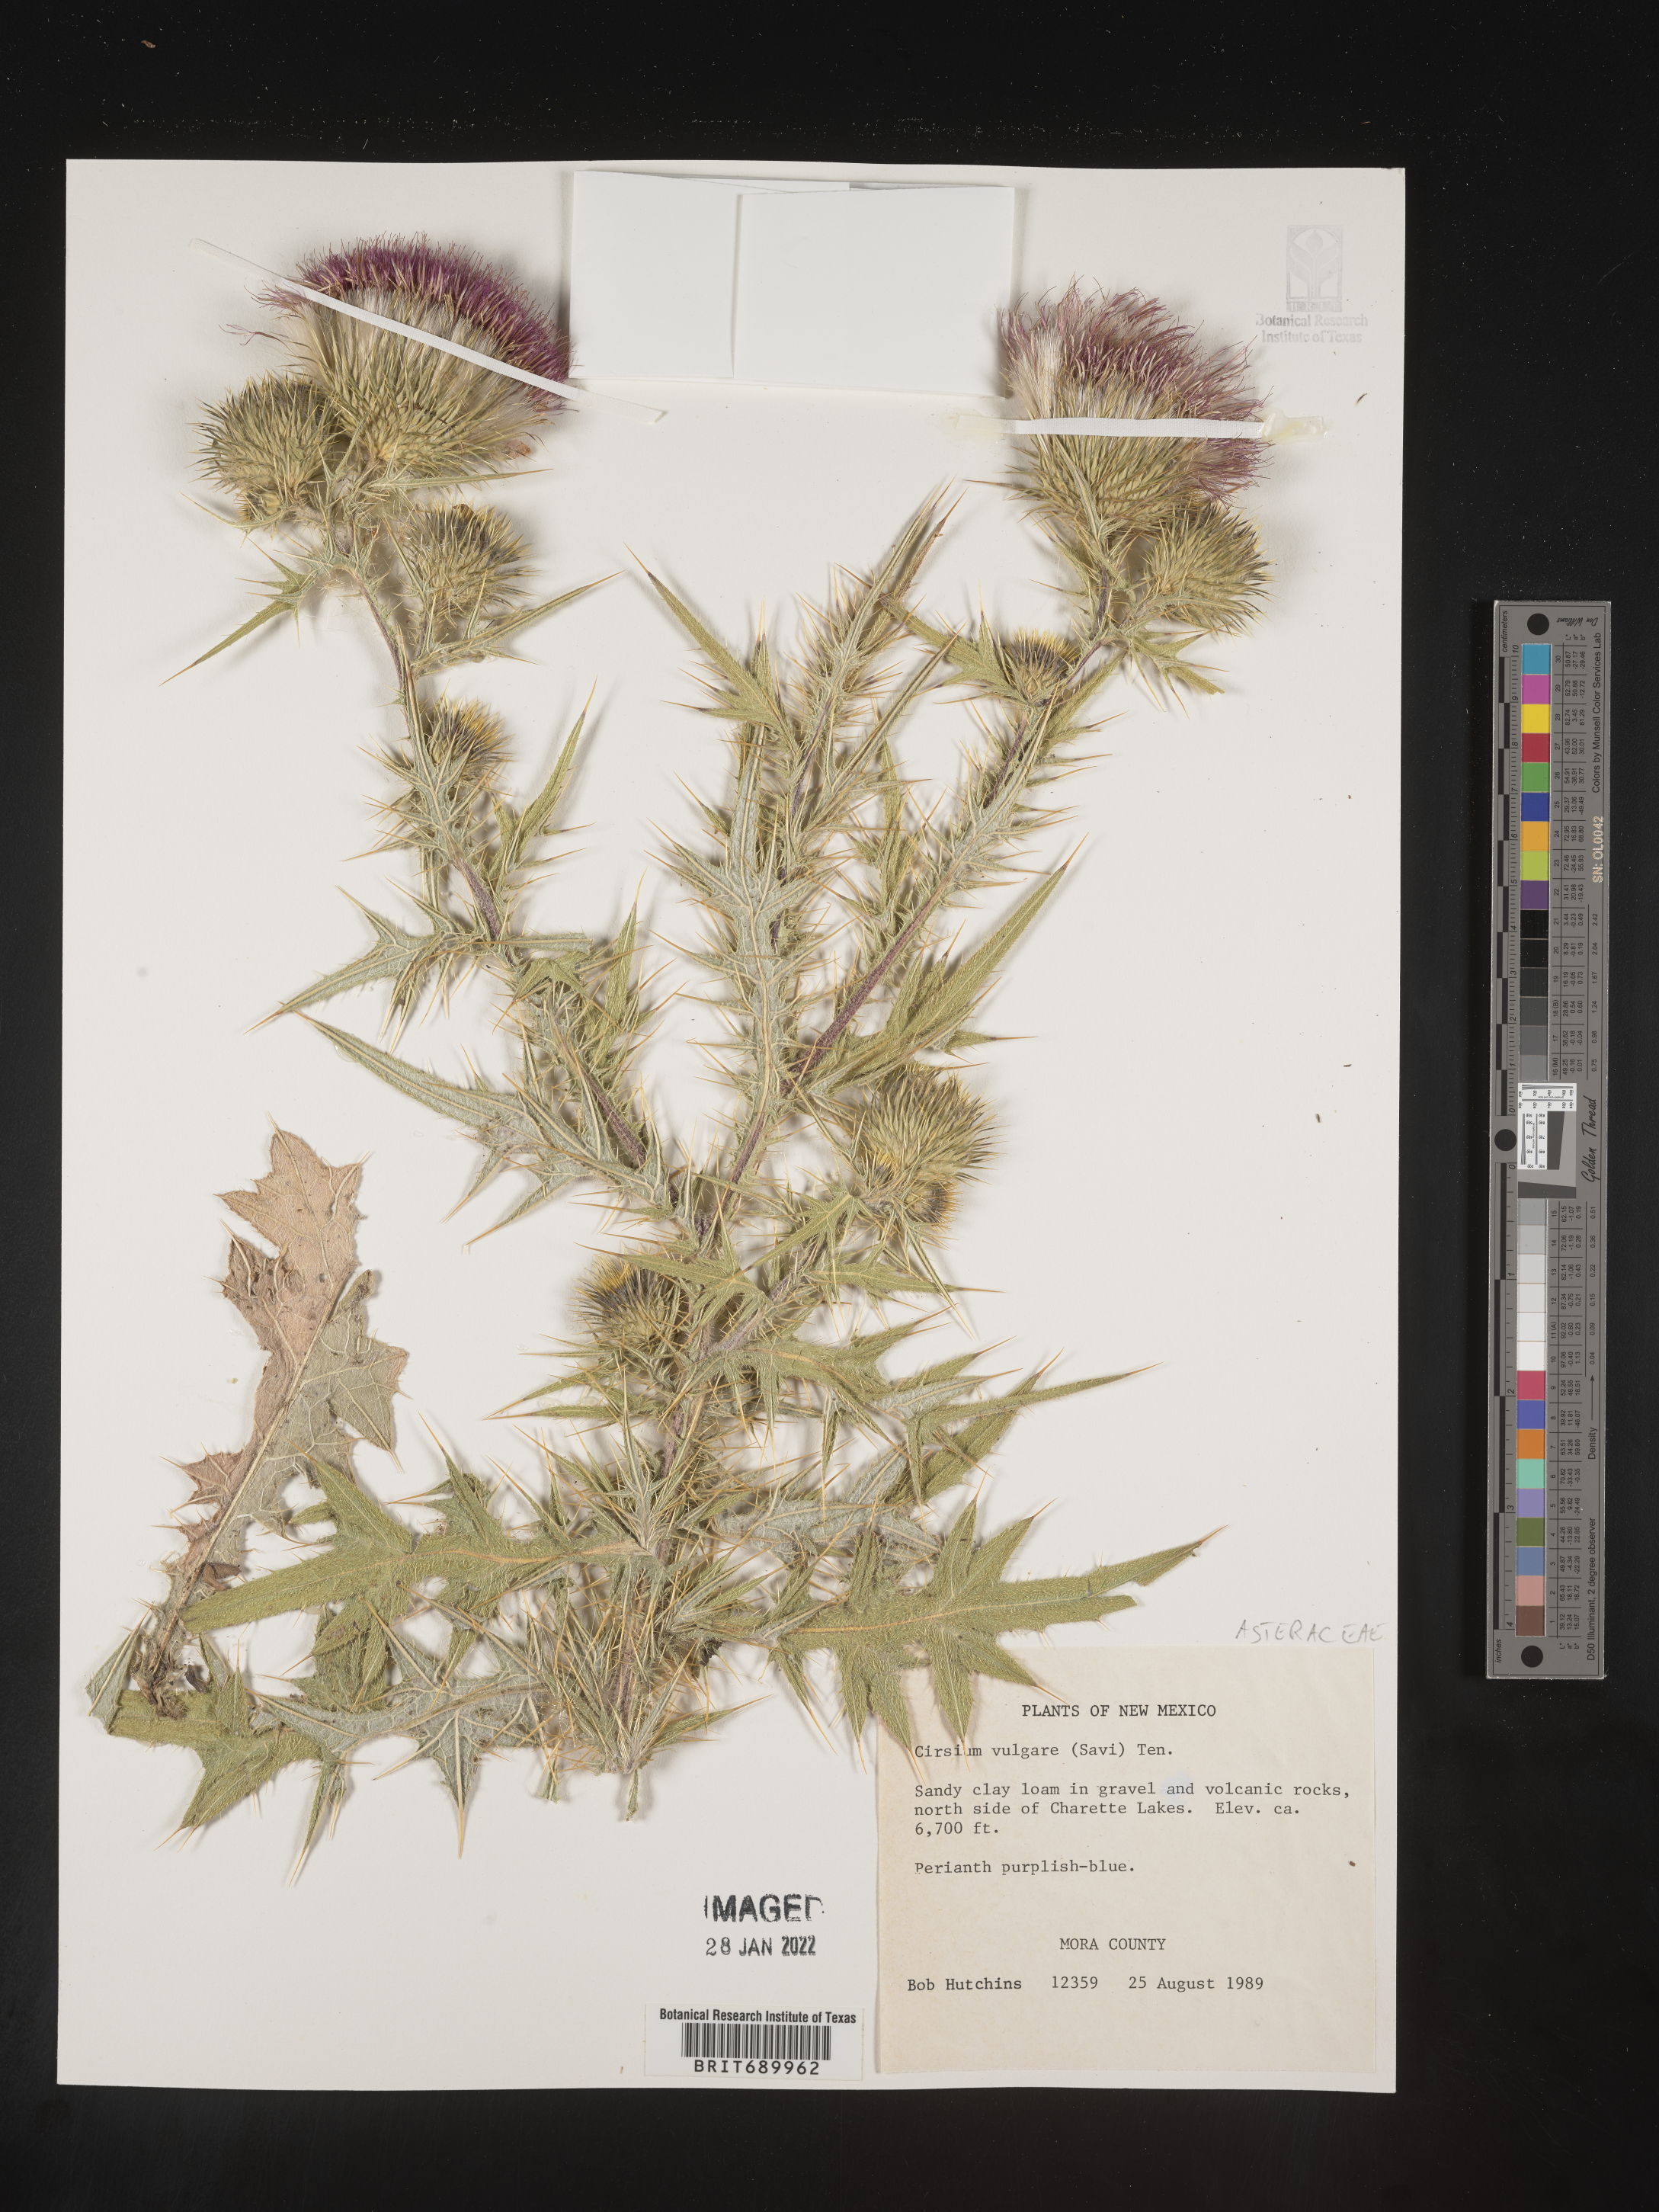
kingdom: Plantae
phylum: Tracheophyta
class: Magnoliopsida
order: Asterales
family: Asteraceae
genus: Cirsium
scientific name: Cirsium vulgare
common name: Bull thistle
